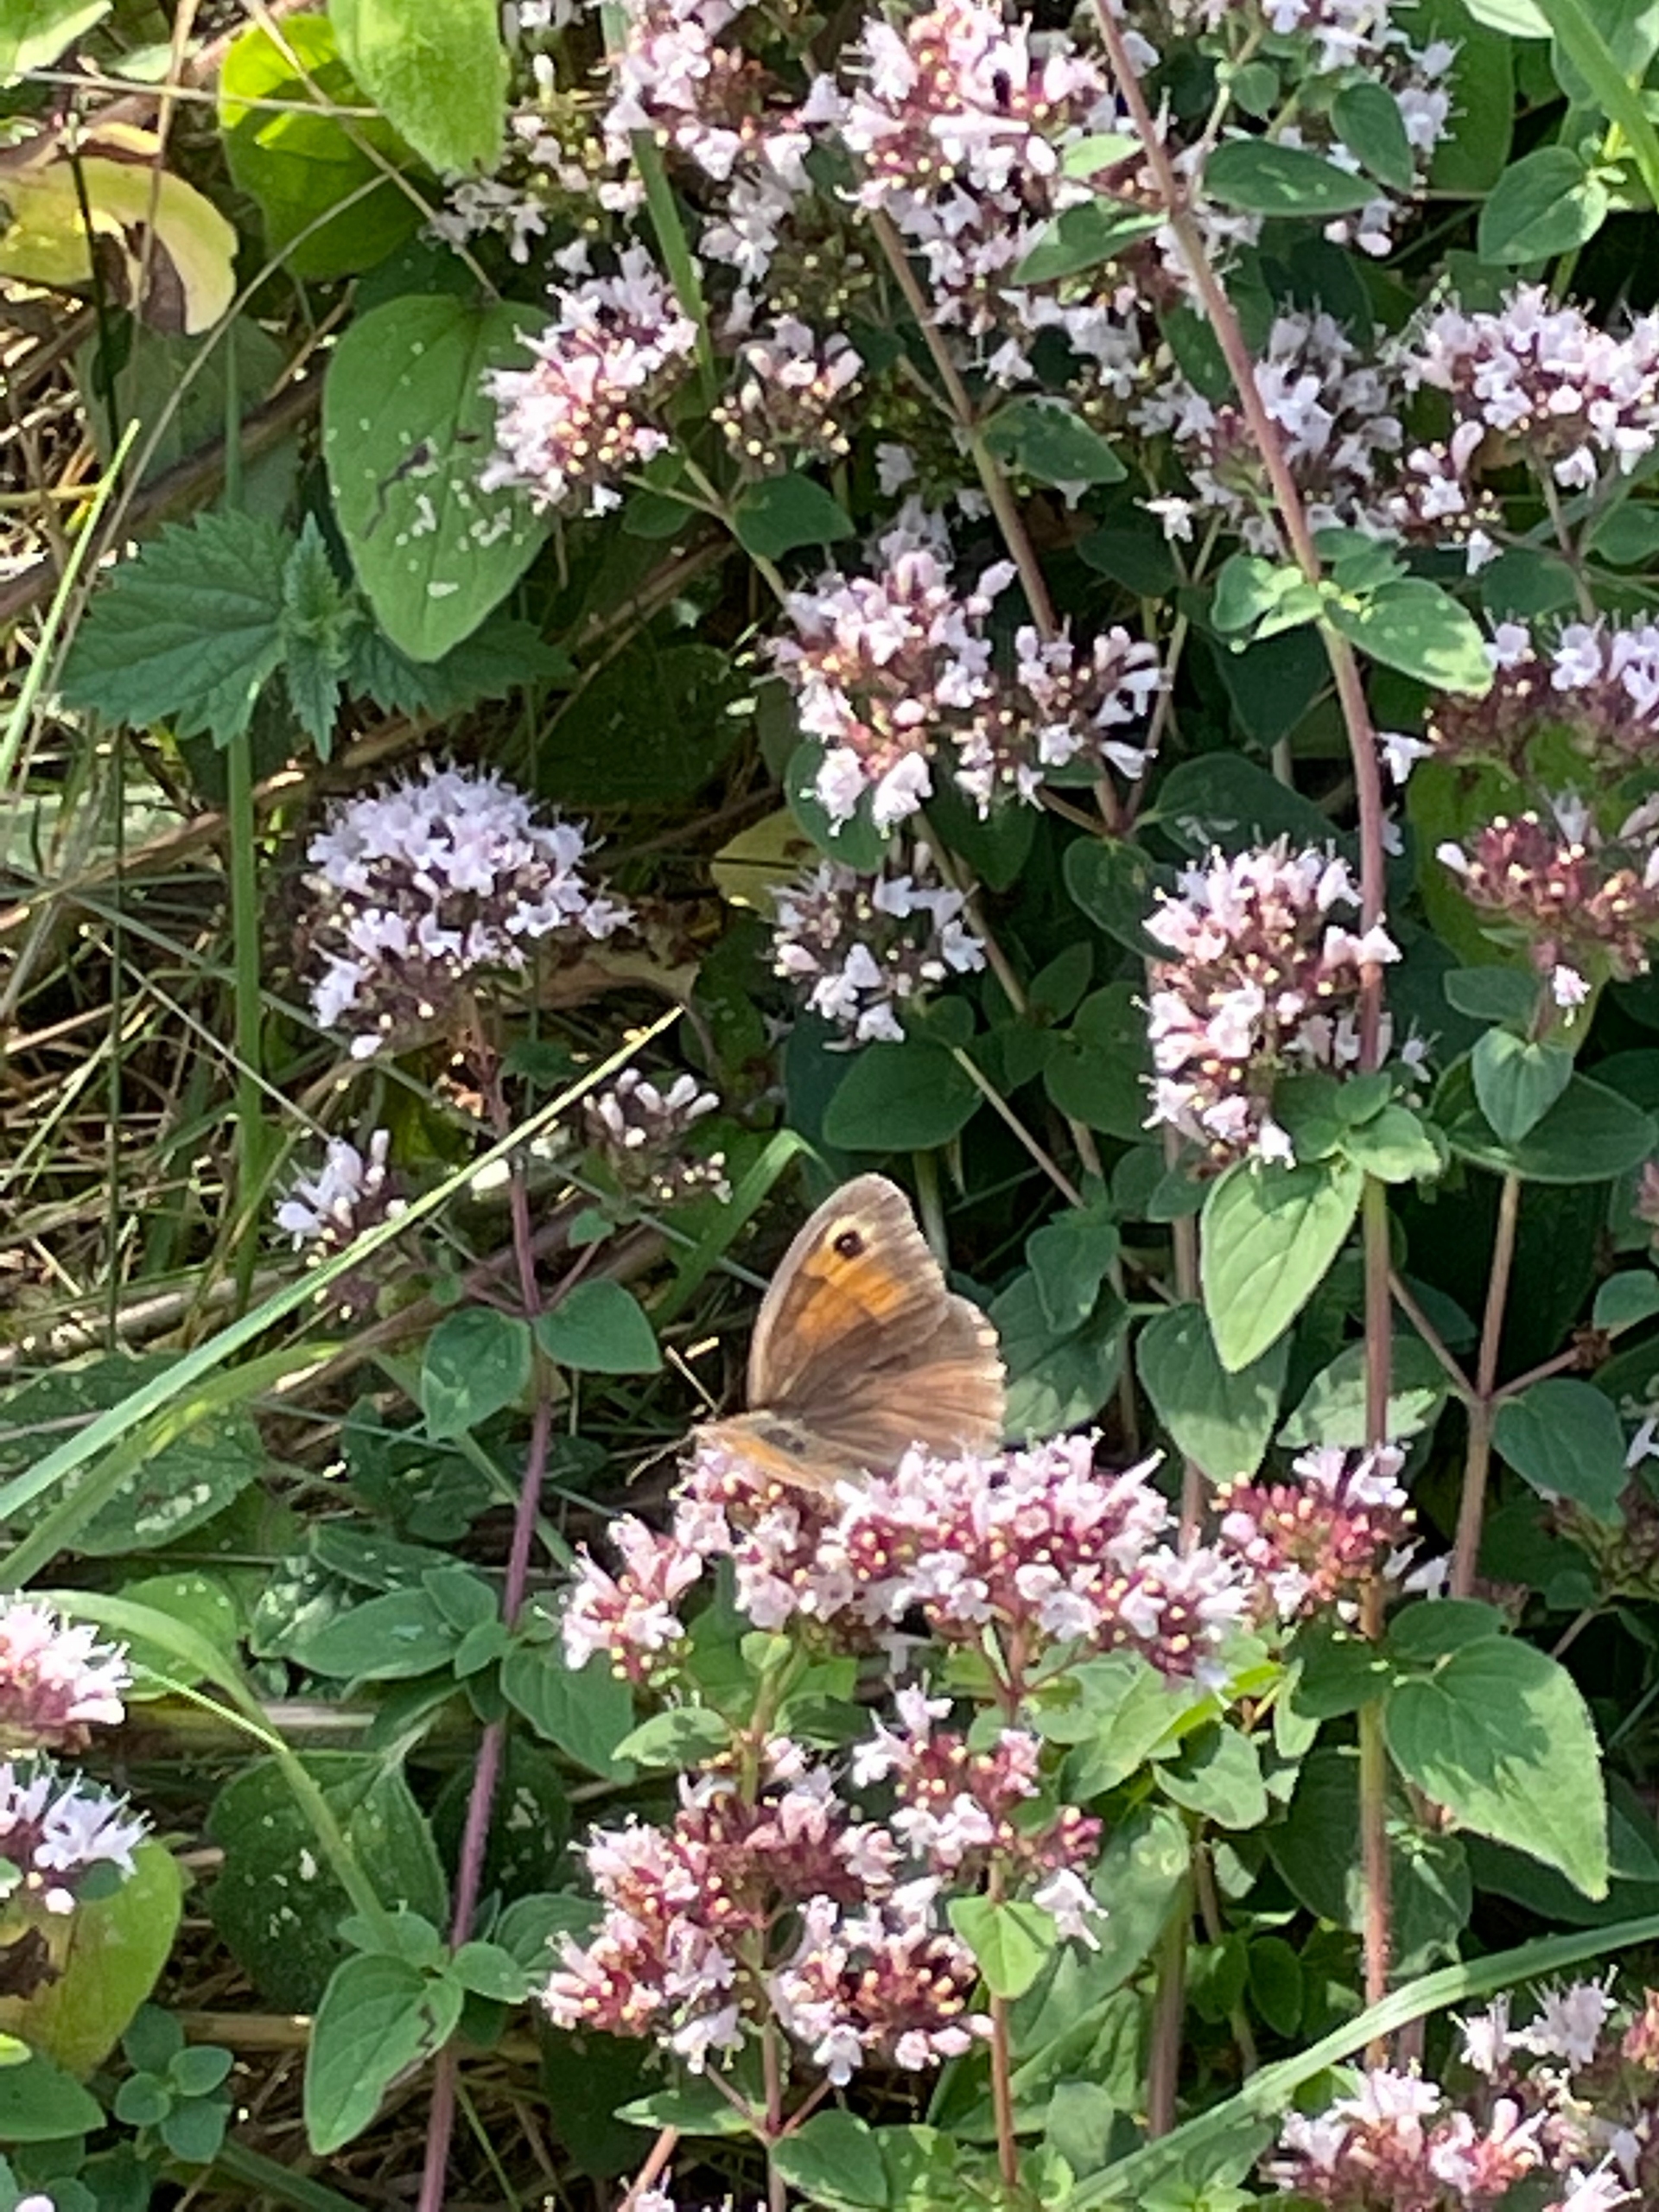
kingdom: Animalia
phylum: Arthropoda
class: Insecta
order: Lepidoptera
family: Nymphalidae
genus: Maniola
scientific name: Maniola jurtina
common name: Græsrandøje
